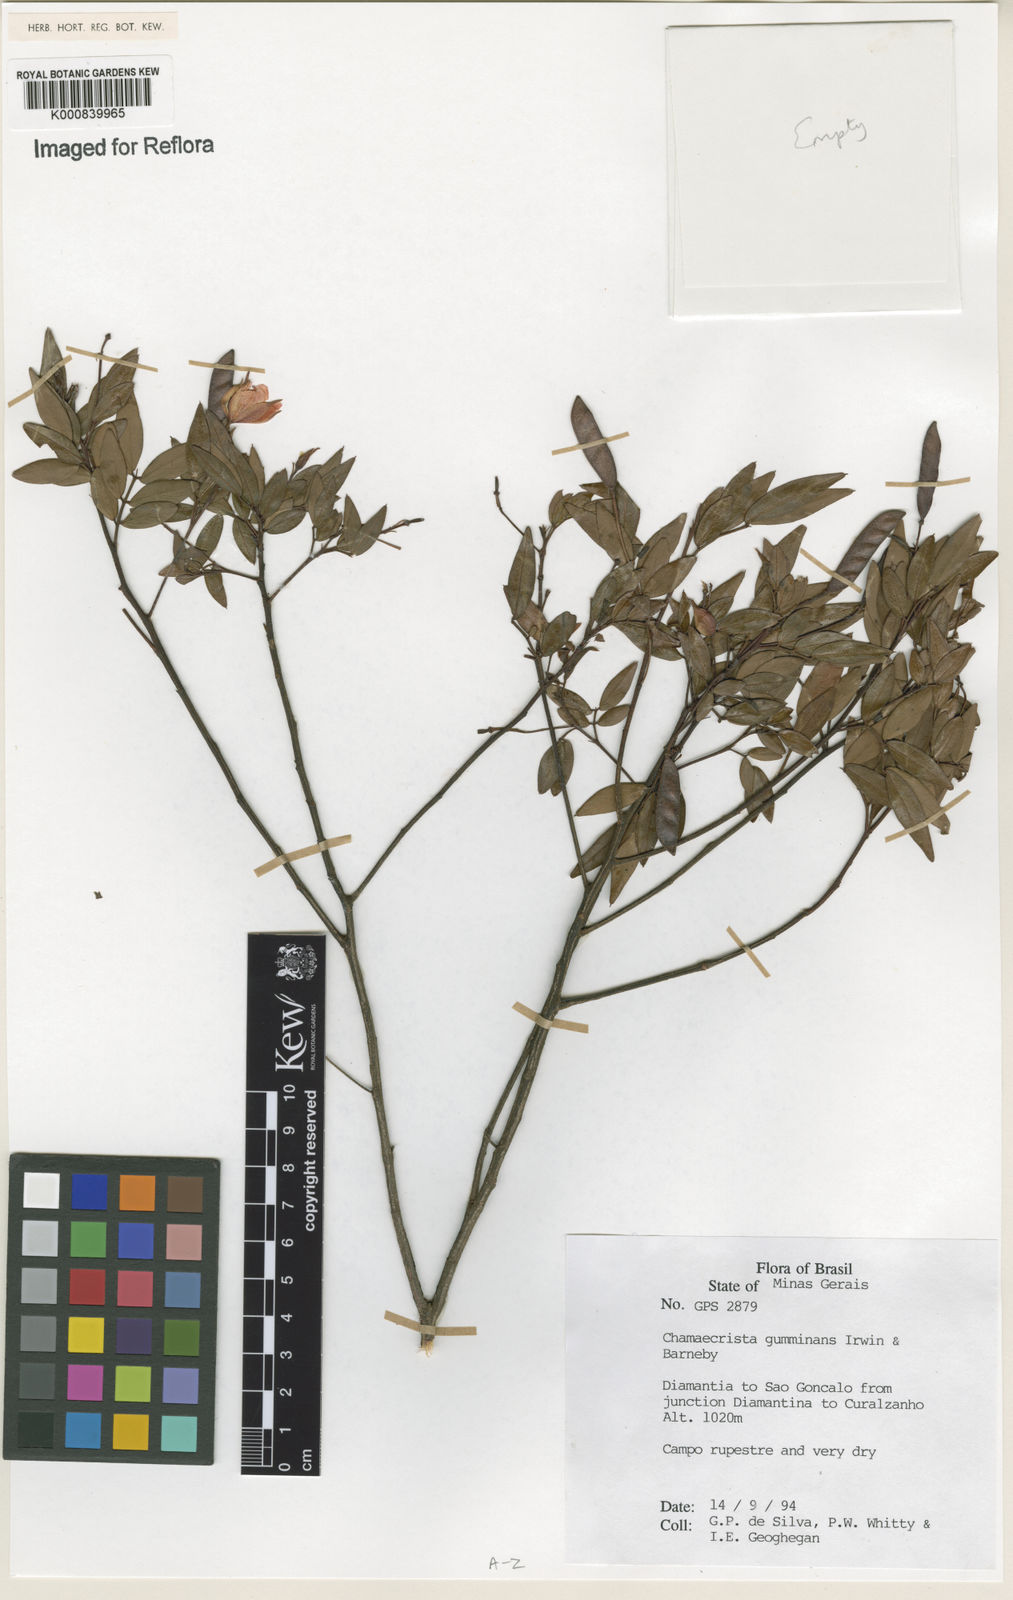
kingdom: Plantae
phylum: Tracheophyta
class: Magnoliopsida
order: Fabales
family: Fabaceae
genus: Chamaecrista
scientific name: Chamaecrista gumminans
